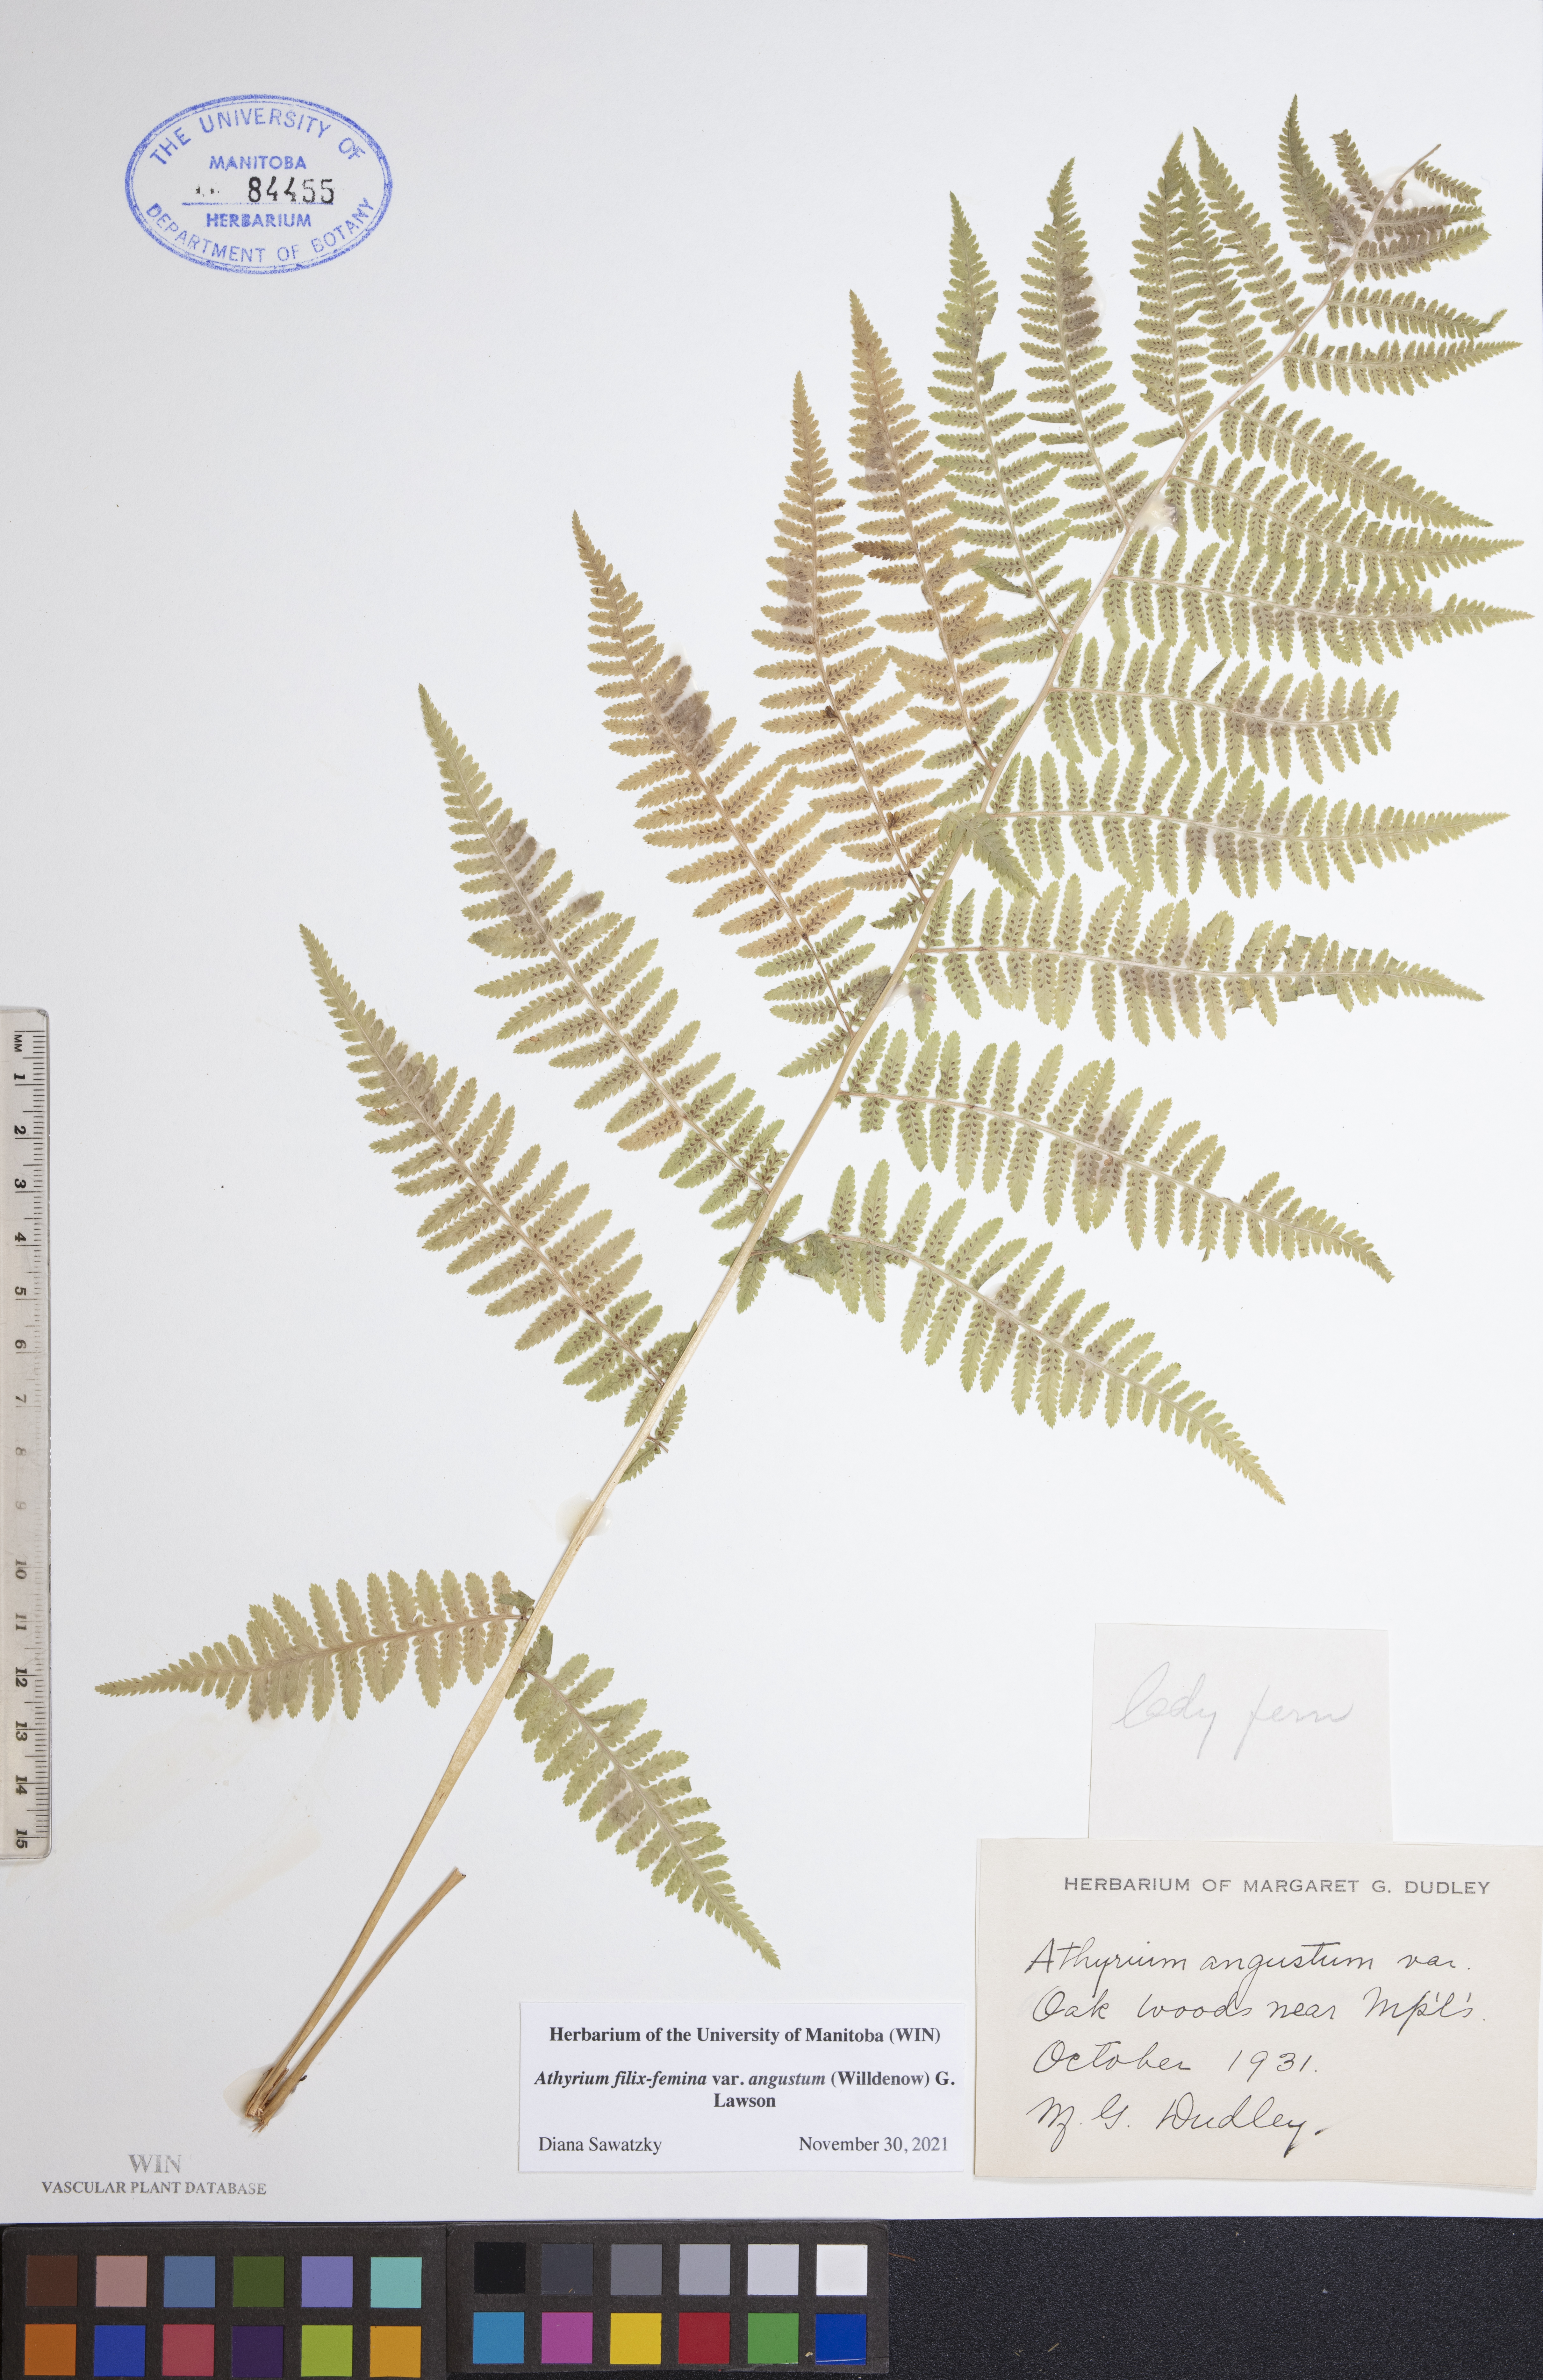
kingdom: Plantae
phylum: Tracheophyta
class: Polypodiopsida
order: Polypodiales
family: Athyriaceae
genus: Athyrium
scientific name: Athyrium angustum
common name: Northern lady fern
